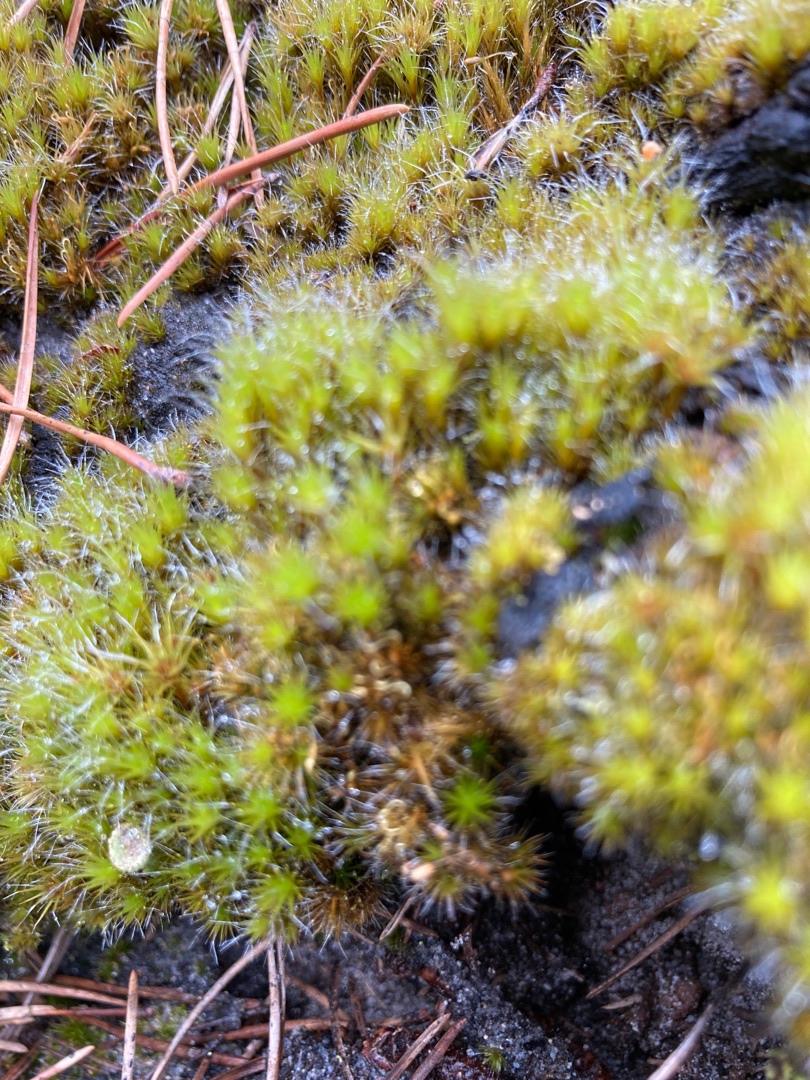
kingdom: Plantae
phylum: Bryophyta
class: Bryopsida
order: Dicranales
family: Leucobryaceae
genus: Campylopus
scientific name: Campylopus introflexus
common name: Stjerne-bredribbe
